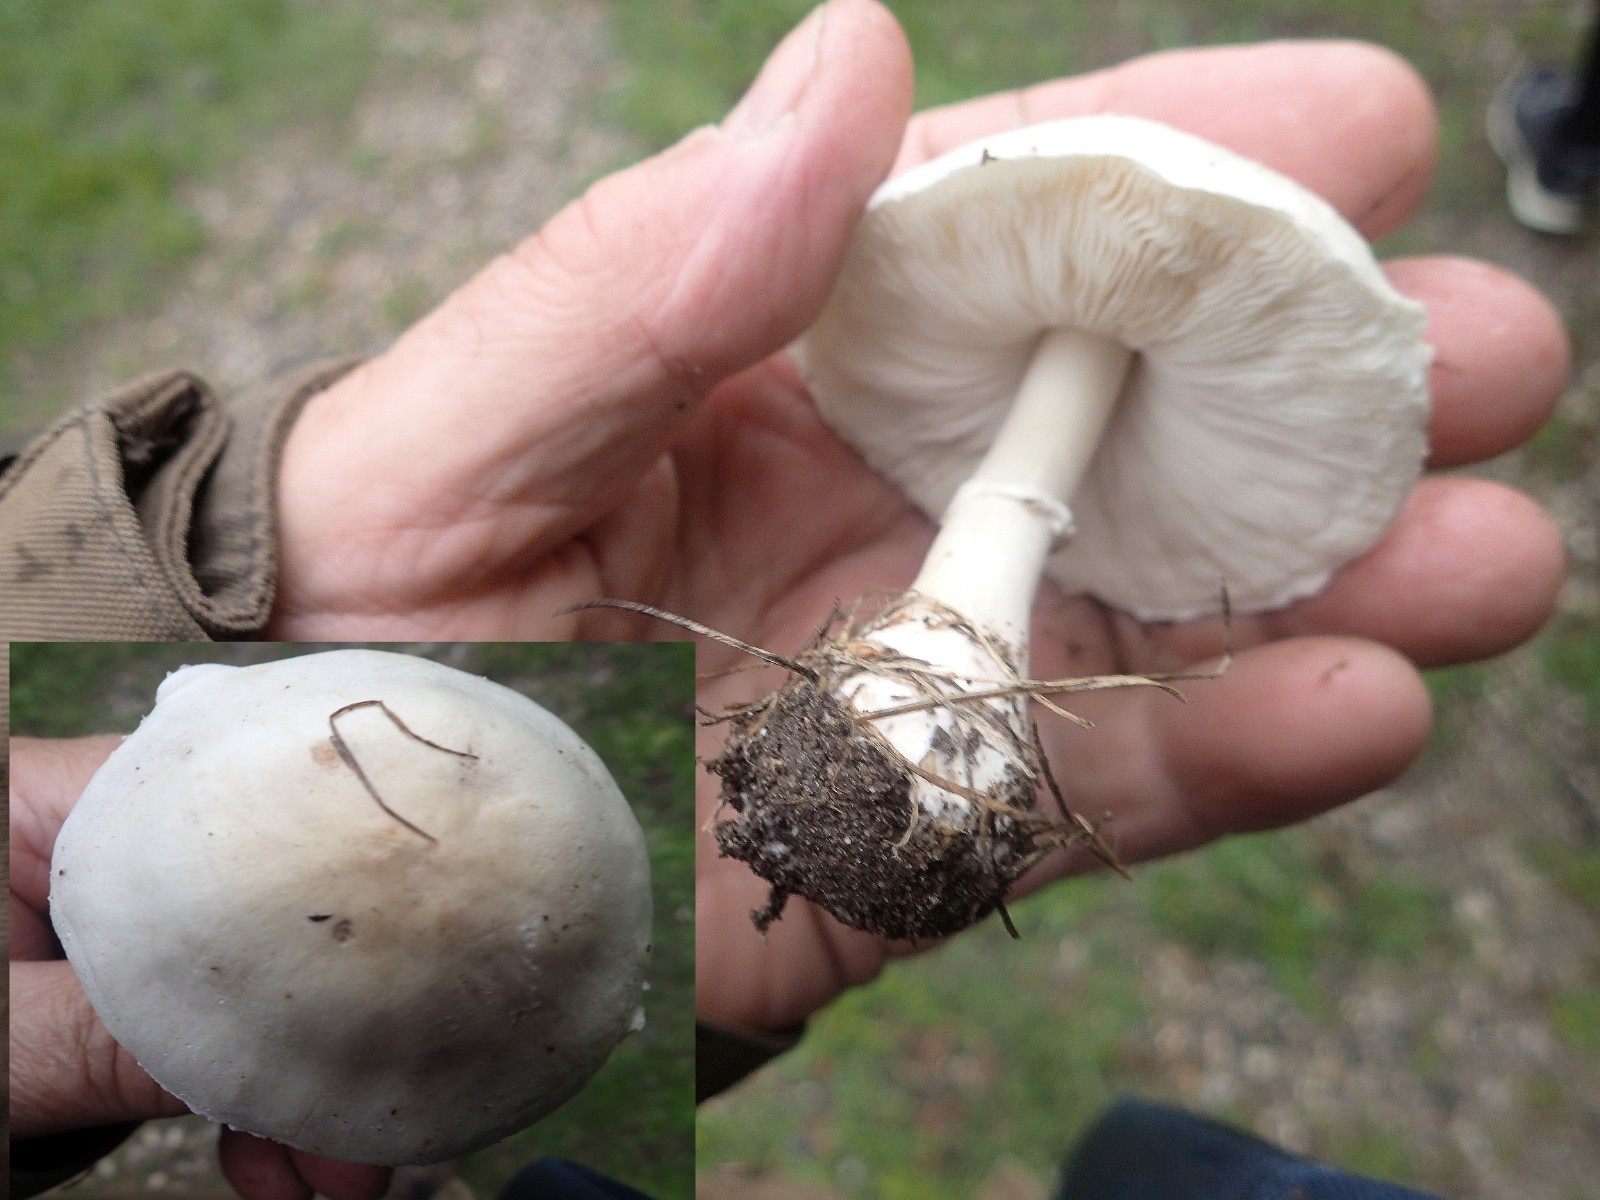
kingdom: Fungi
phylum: Basidiomycota
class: Agaricomycetes
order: Agaricales
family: Agaricaceae
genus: Leucoagaricus
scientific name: Leucoagaricus leucothites
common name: rosabladet silkehat
